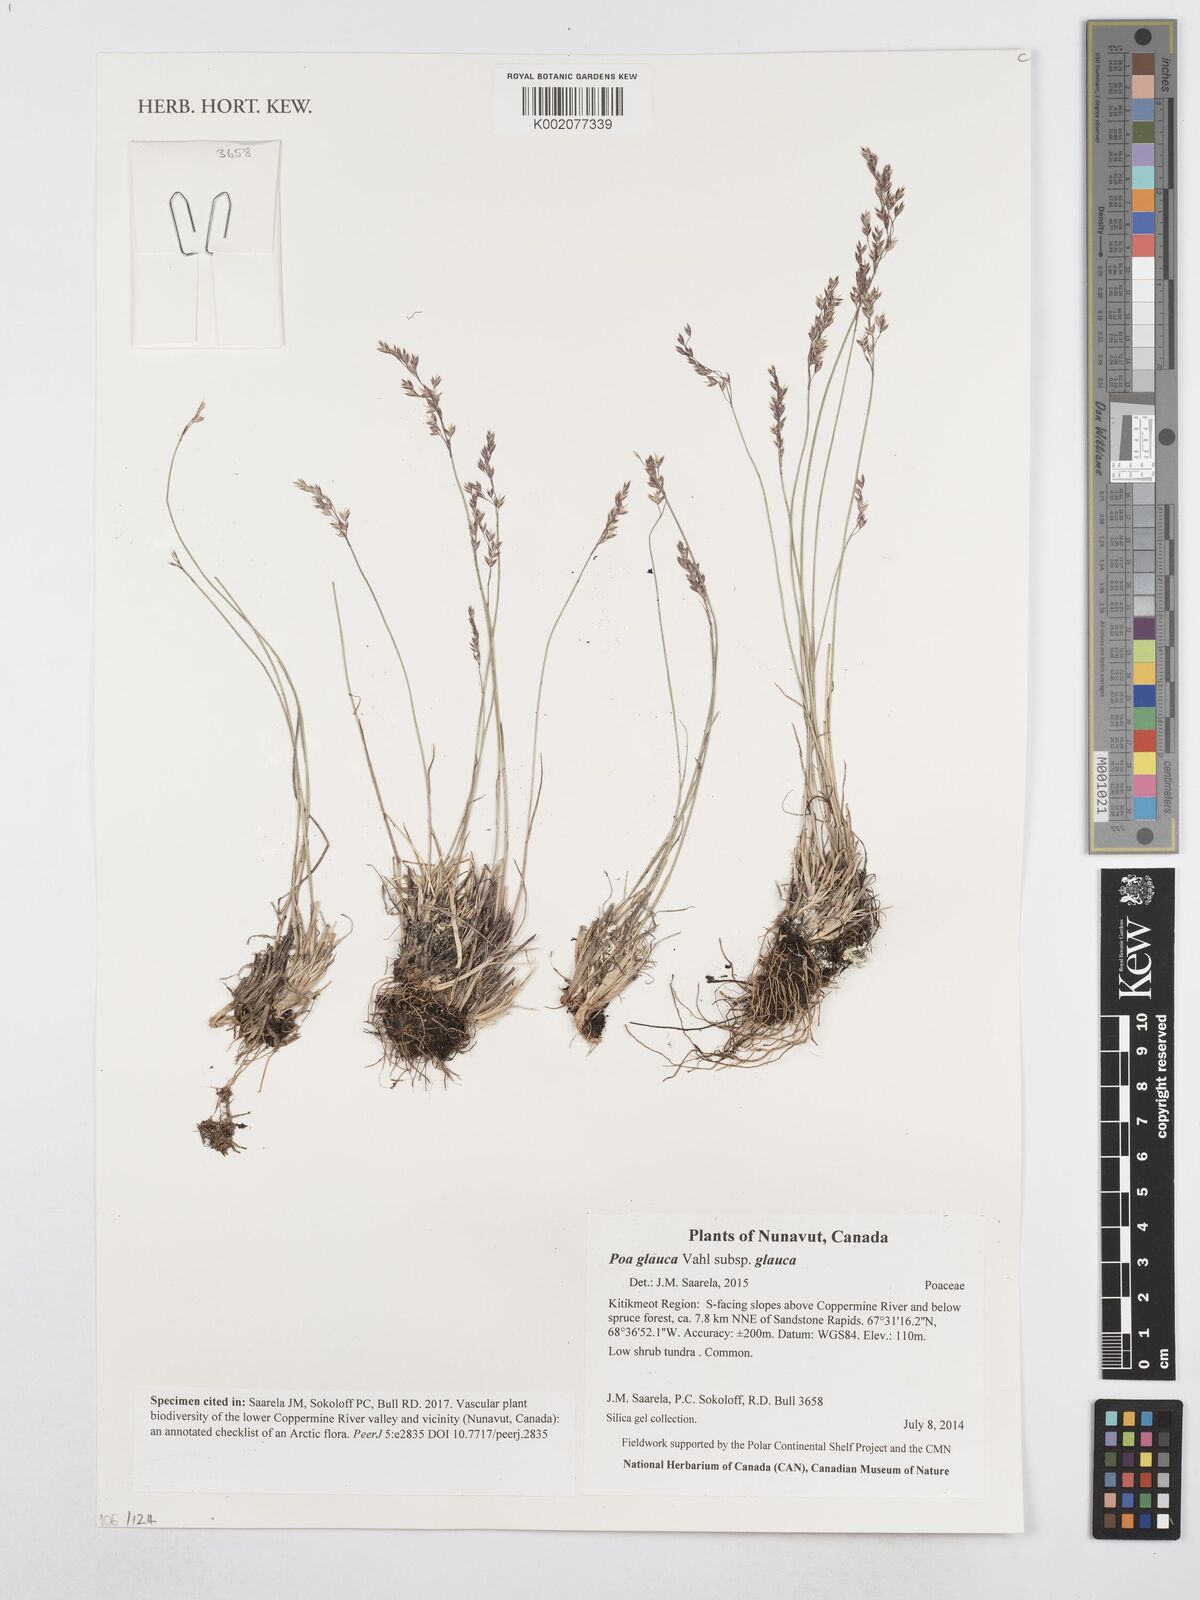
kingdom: Plantae
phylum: Tracheophyta
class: Liliopsida
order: Poales
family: Poaceae
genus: Poa
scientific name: Poa glauca
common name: Glaucous bluegrass
